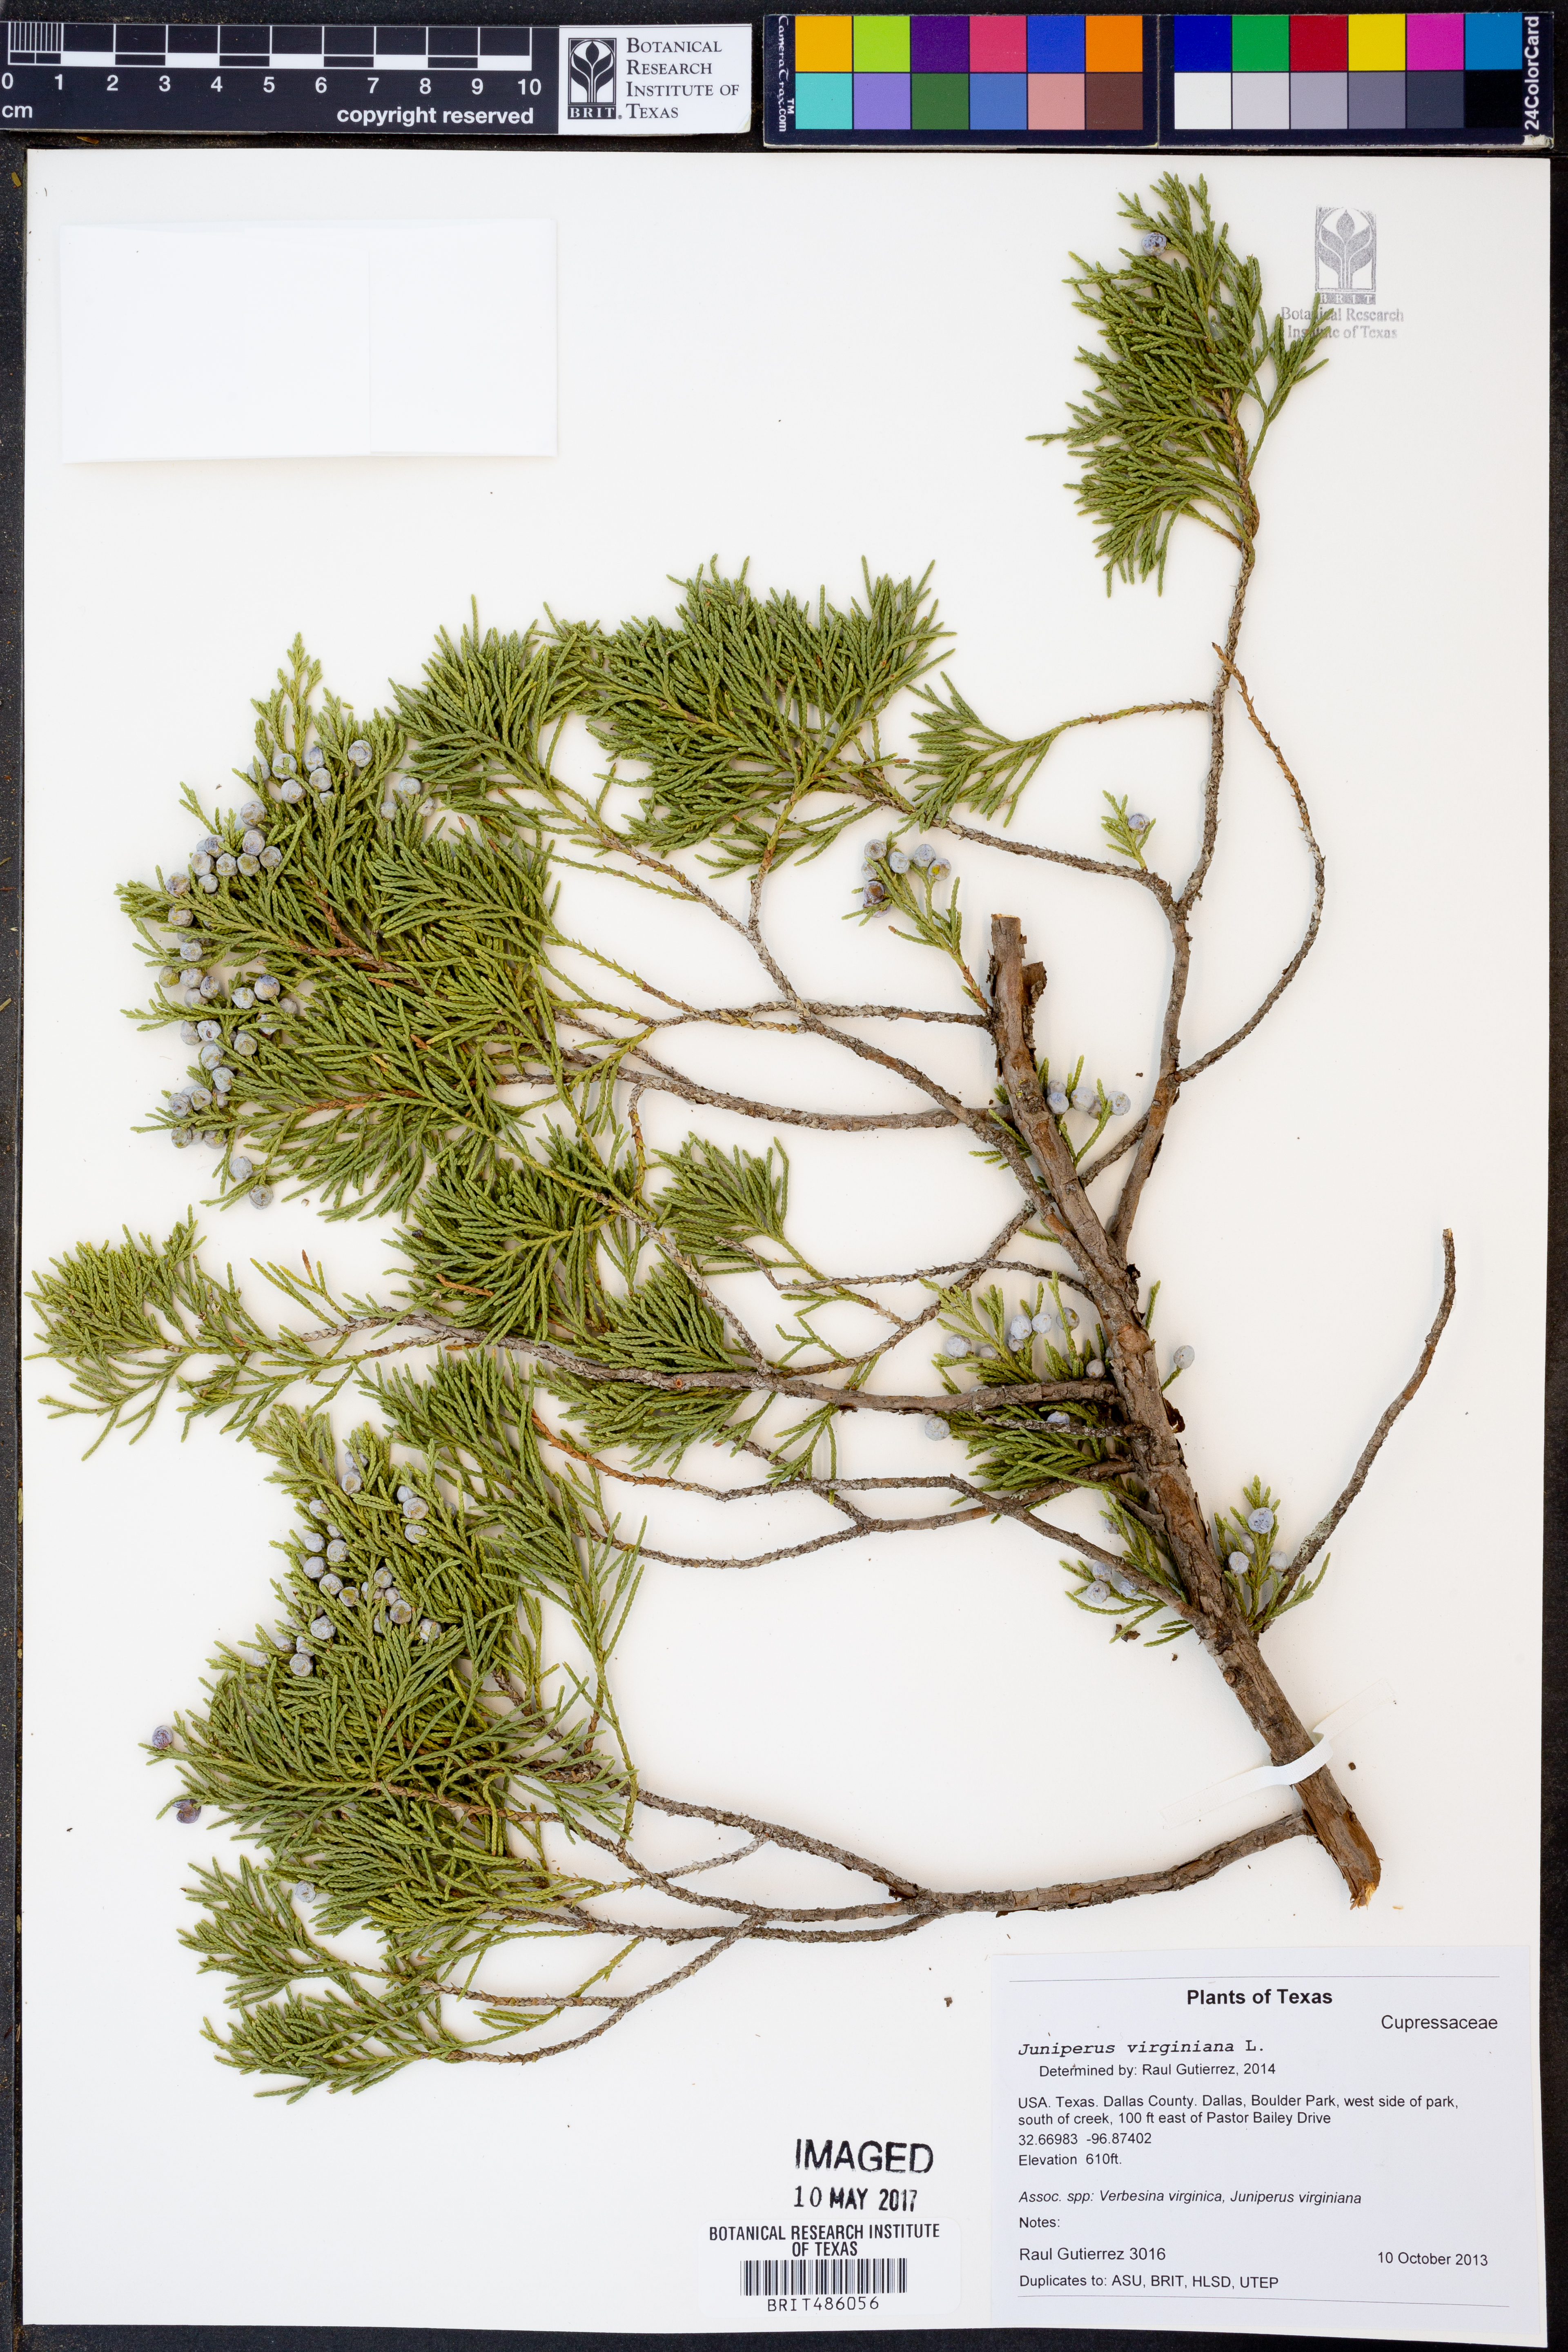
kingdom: Plantae
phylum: Tracheophyta
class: Pinopsida
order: Pinales
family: Cupressaceae
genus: Juniperus
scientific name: Juniperus virginiana
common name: Red juniper
